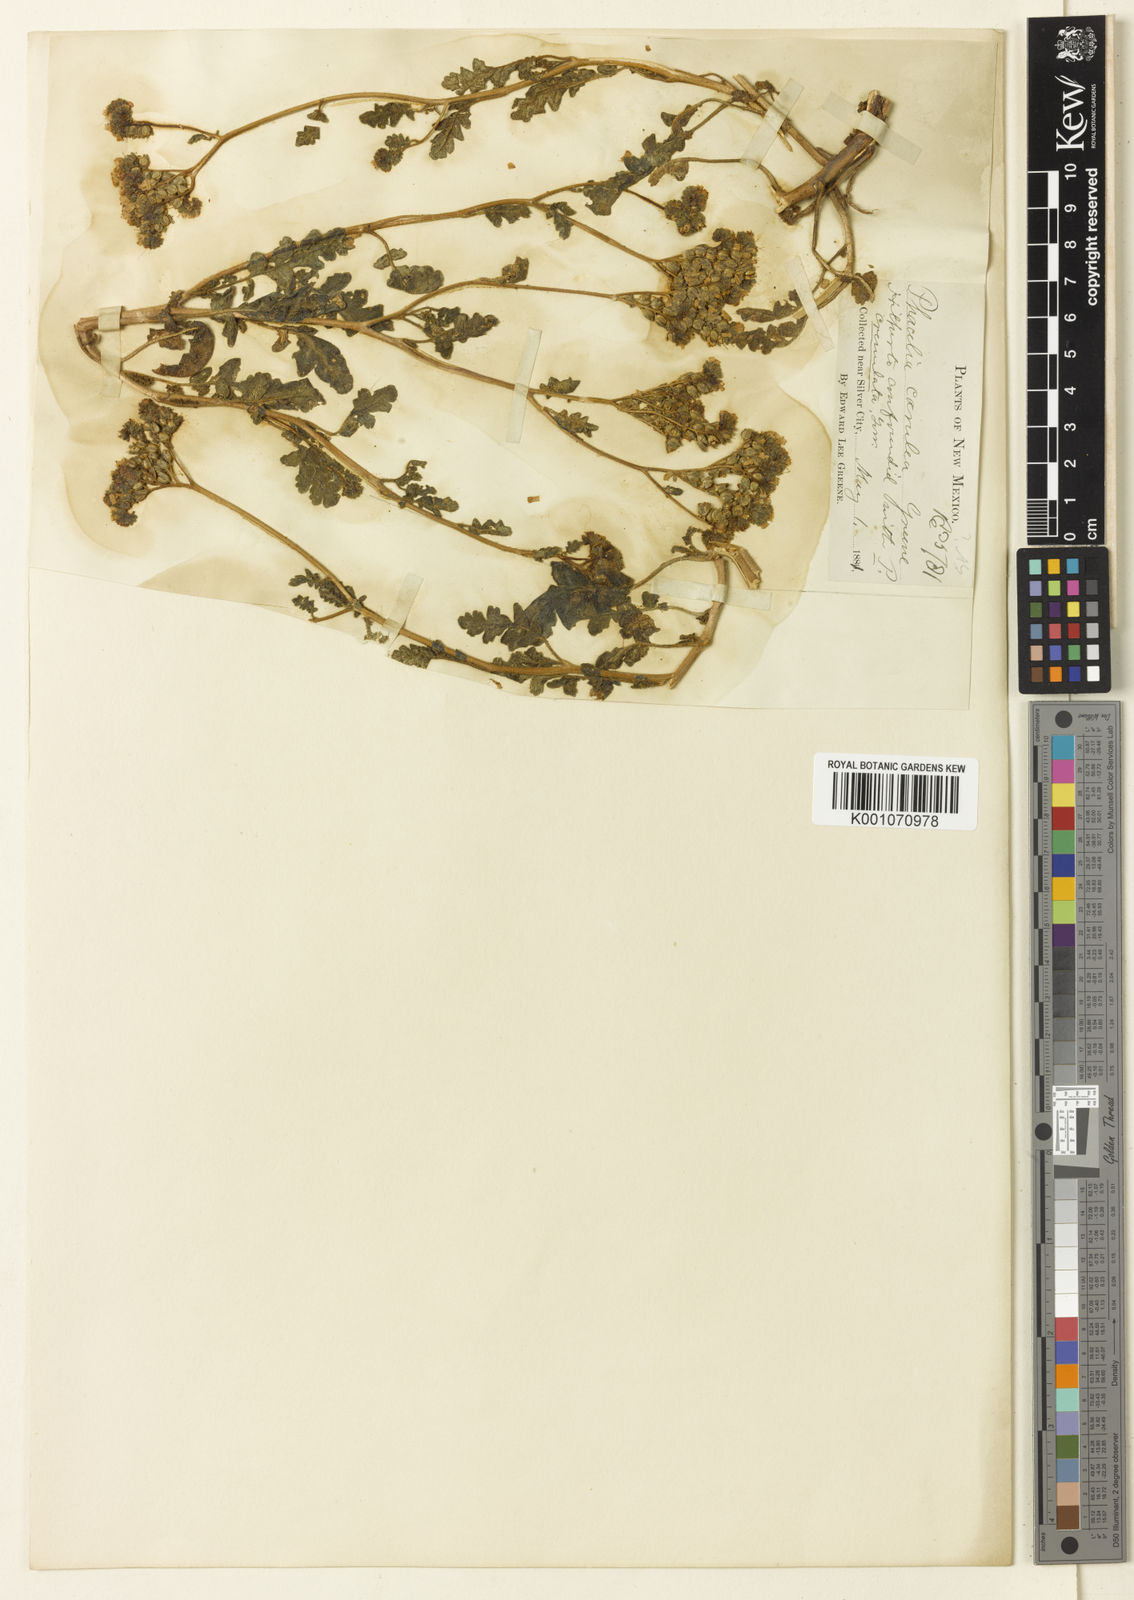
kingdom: Plantae
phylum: Tracheophyta
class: Magnoliopsida
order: Boraginales
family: Hydrophyllaceae
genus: Phacelia
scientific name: Phacelia caerulea
